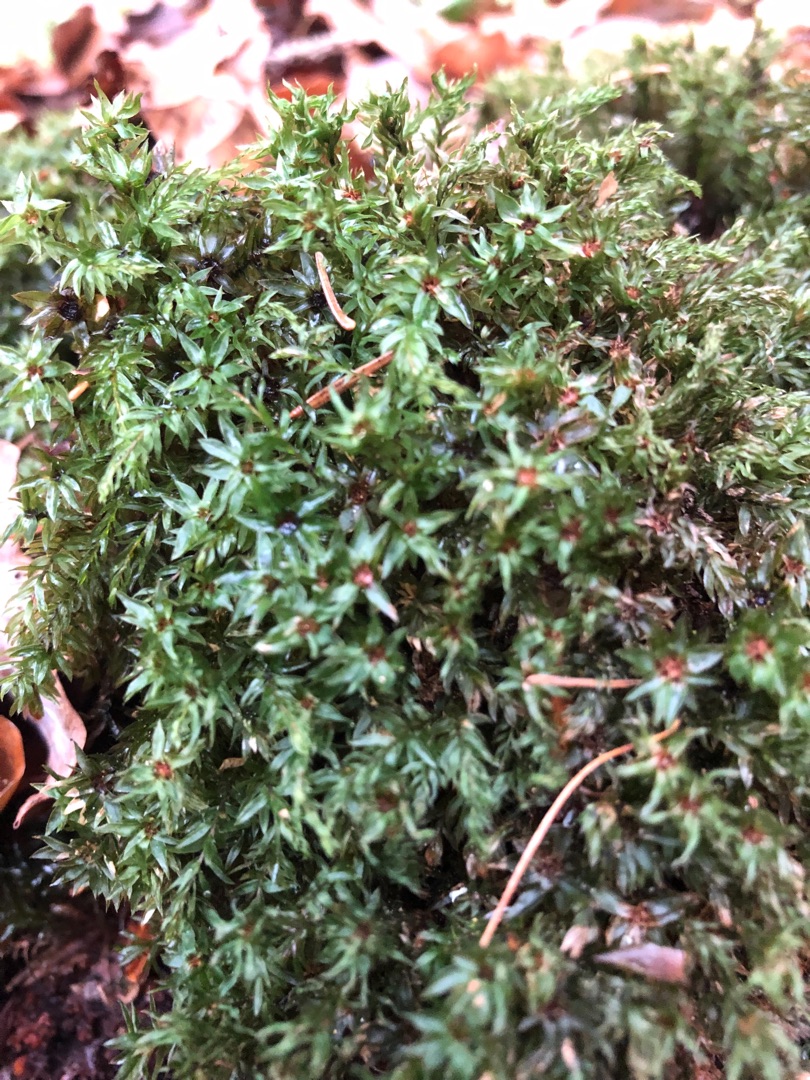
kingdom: Plantae
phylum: Bryophyta
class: Bryopsida
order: Bryales
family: Mniaceae
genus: Mnium
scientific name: Mnium hornum
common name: Brunfiltet stjernemos
